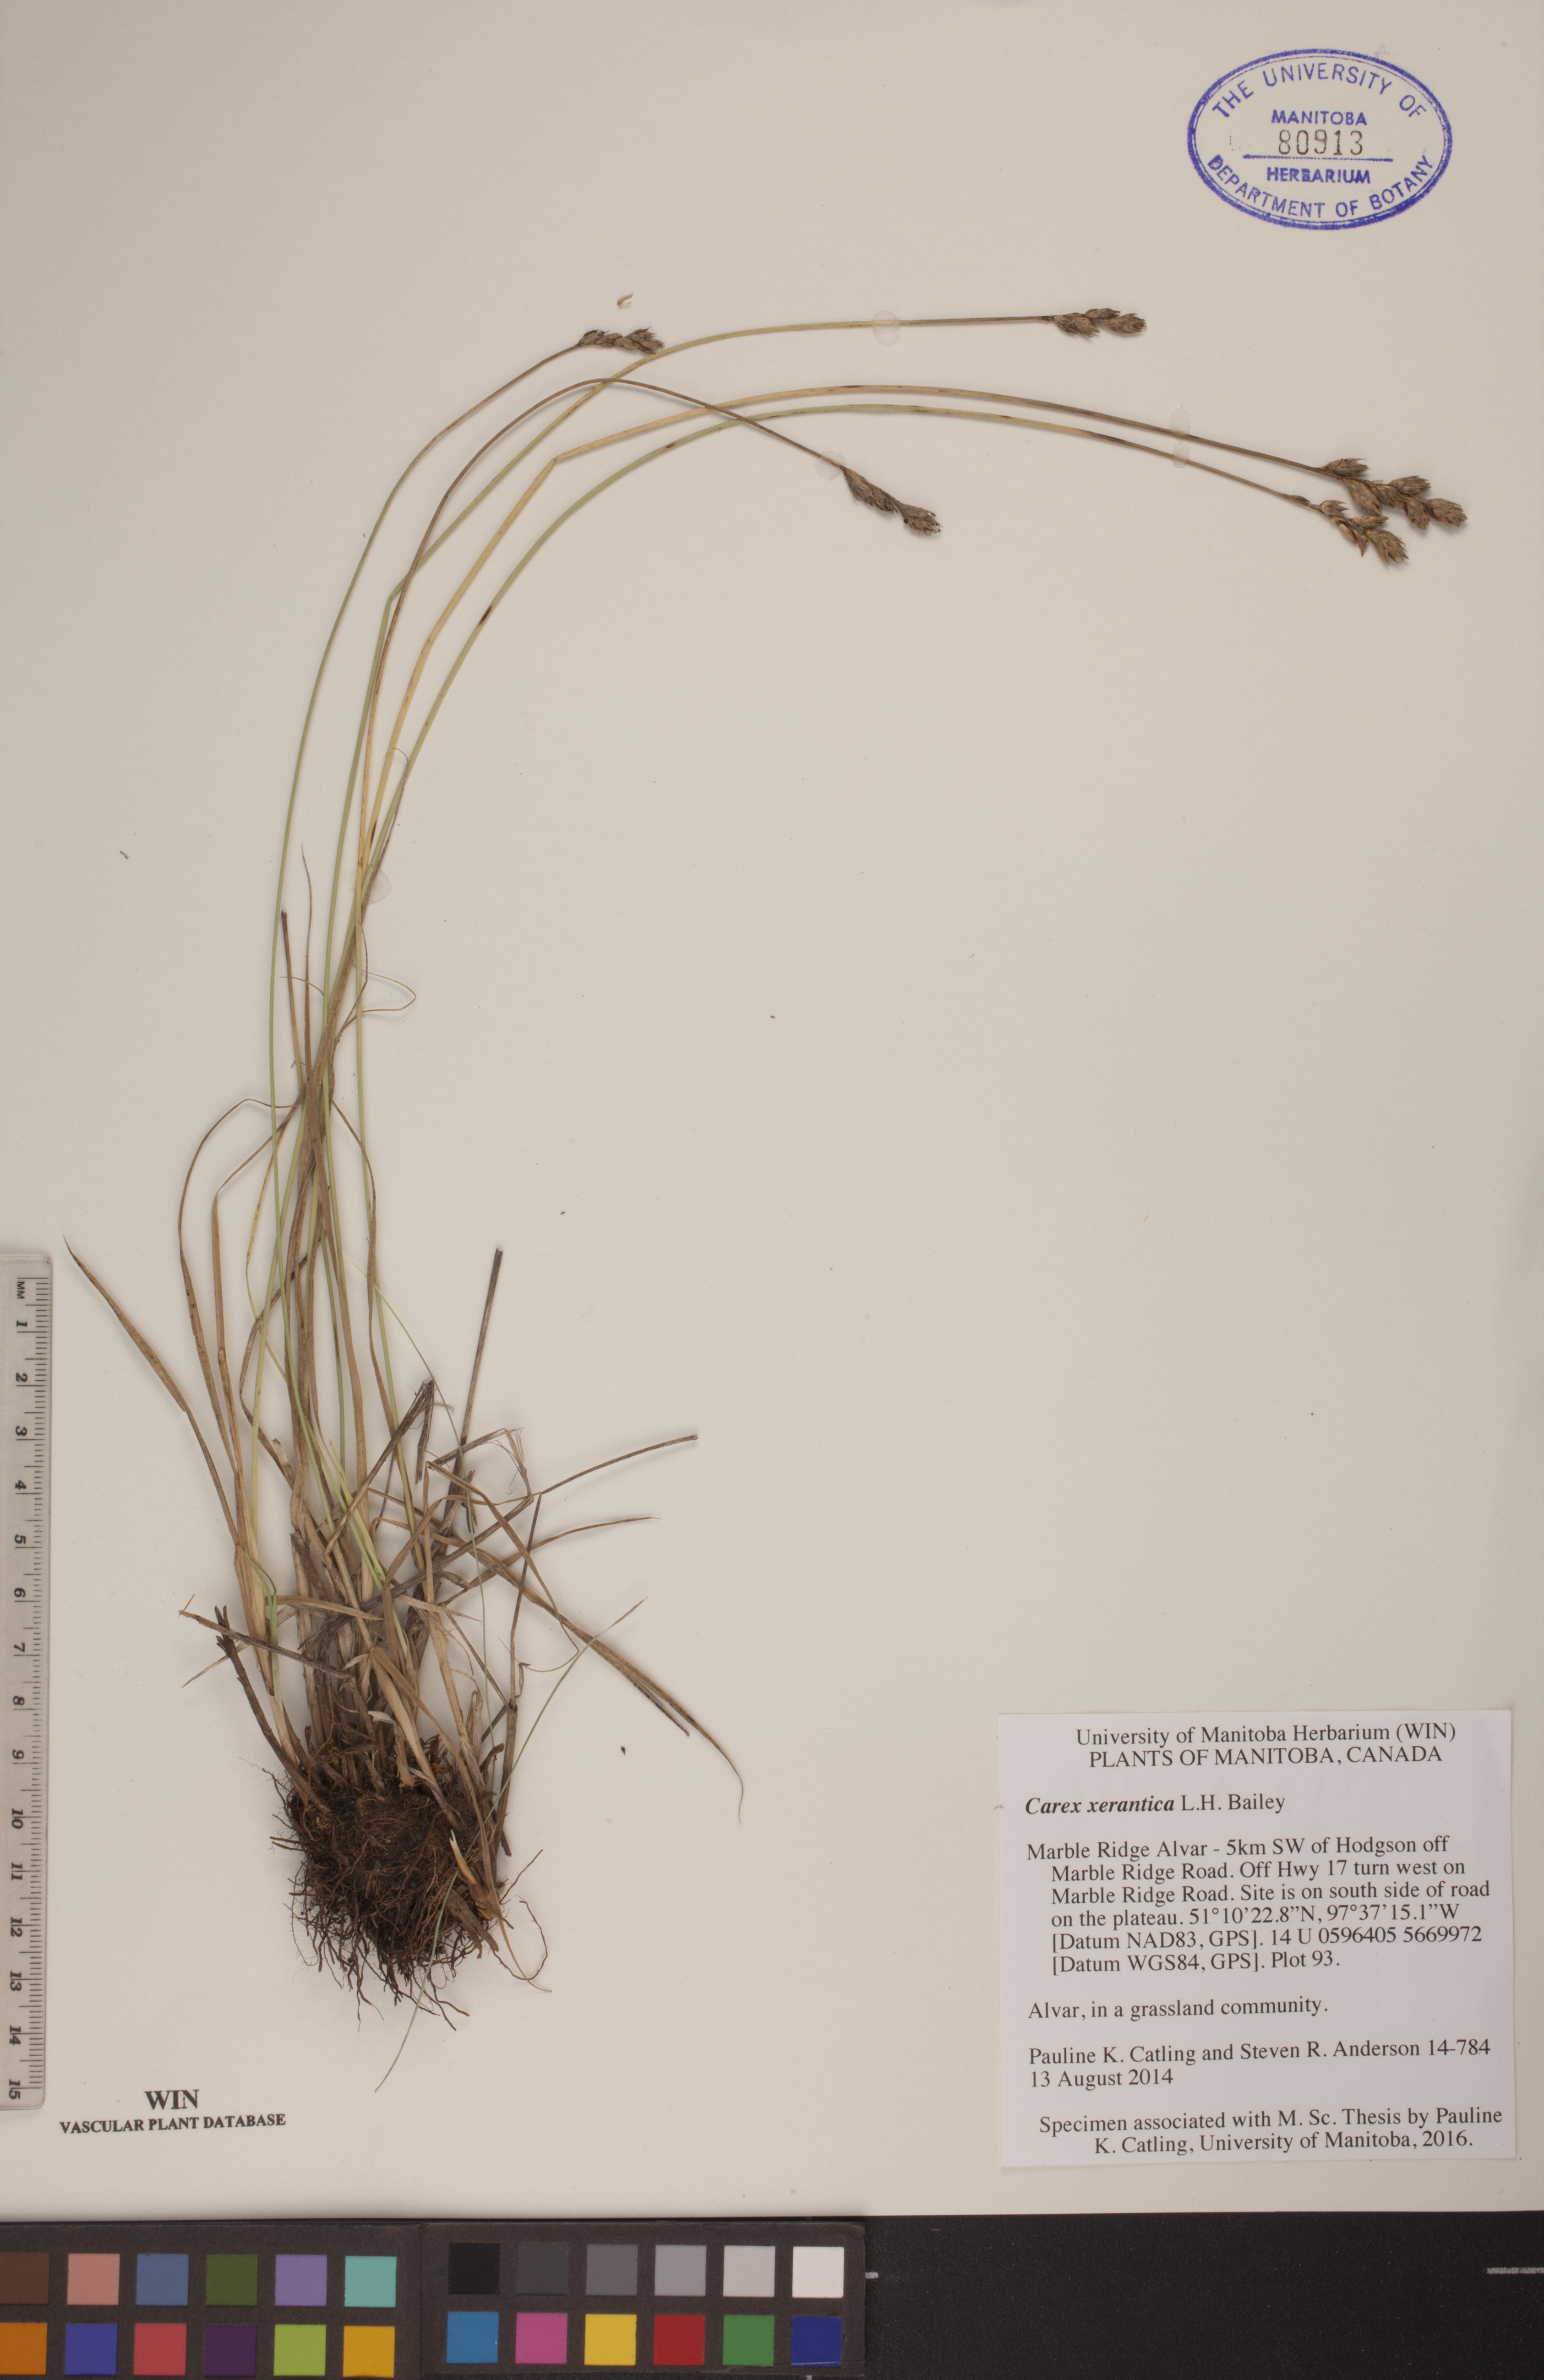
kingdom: Plantae
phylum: Tracheophyta
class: Liliopsida
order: Poales
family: Cyperaceae
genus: Carex
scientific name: Carex xerantica
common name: Dryland sedge
